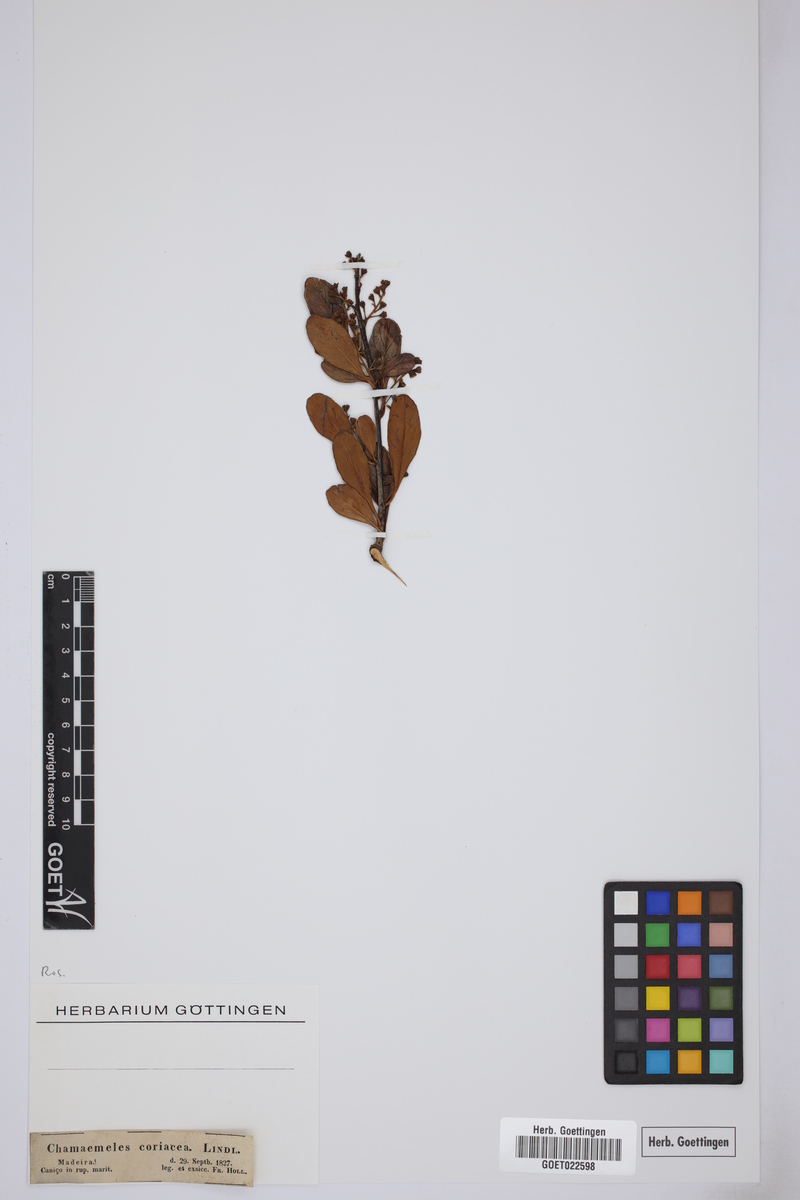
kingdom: Plantae
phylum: Tracheophyta
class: Magnoliopsida
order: Rosales
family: Rosaceae
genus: Chamaemeles
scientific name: Chamaemeles coriacea
